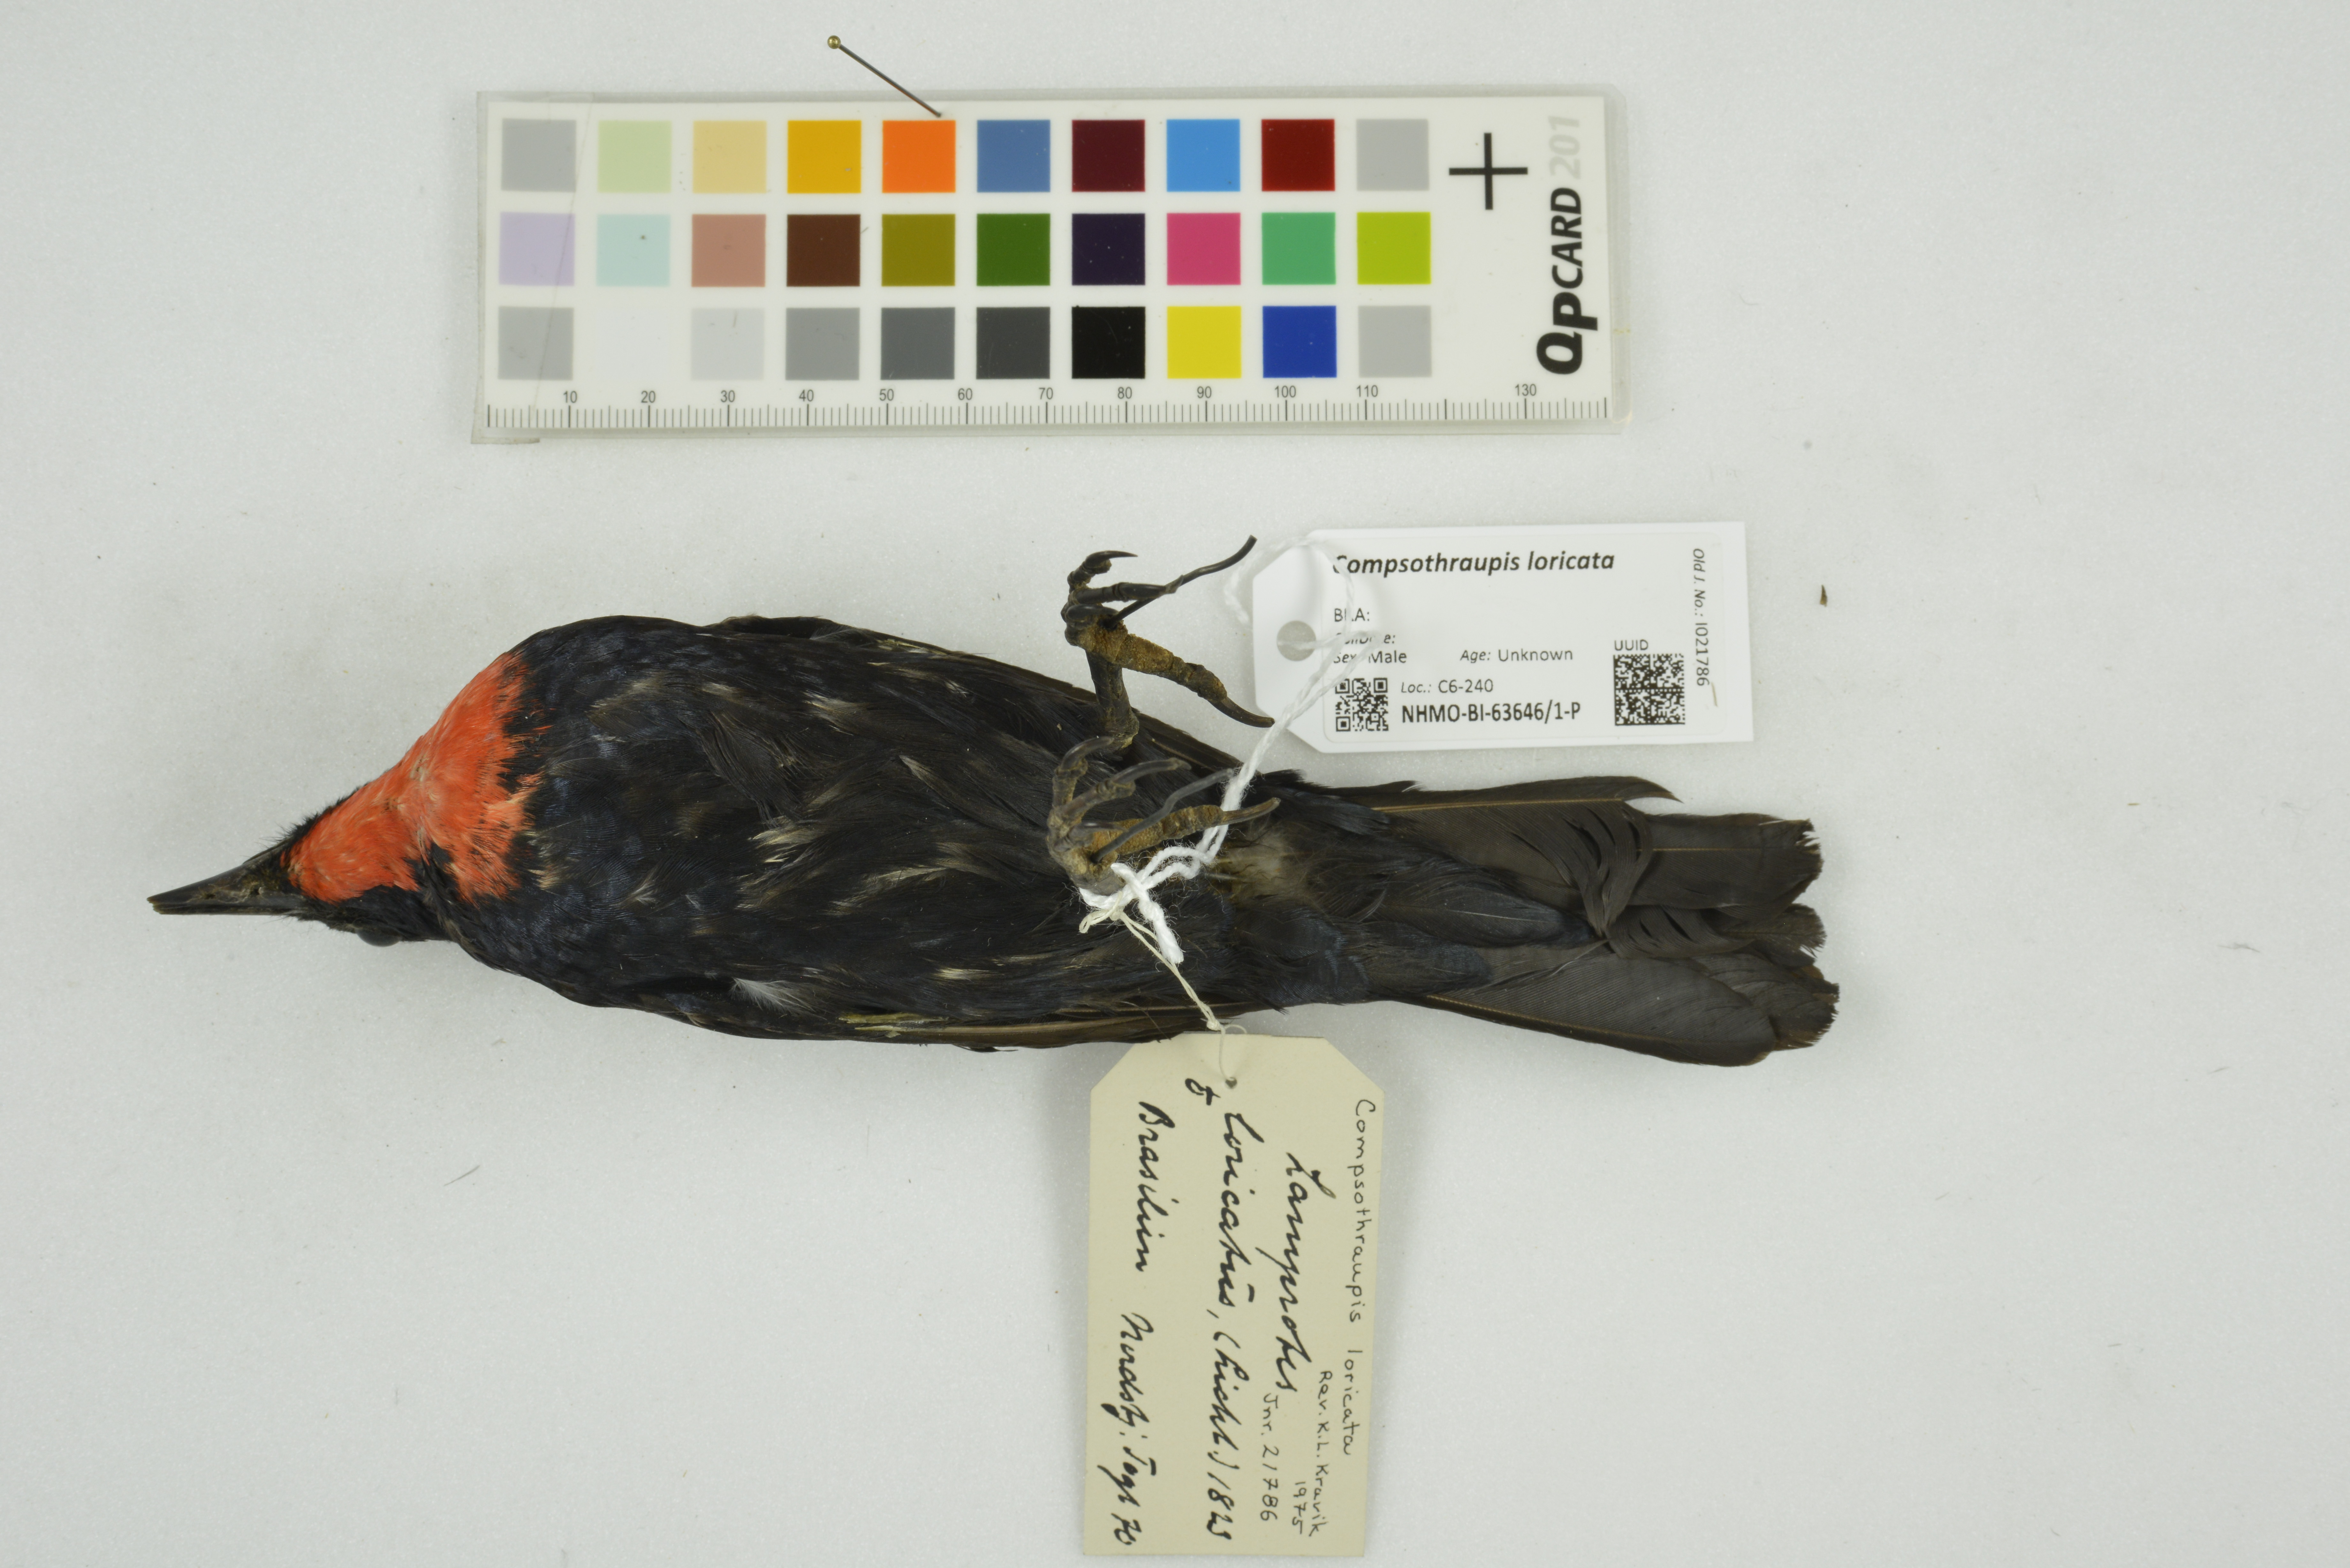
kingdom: Animalia
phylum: Chordata
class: Aves
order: Passeriformes
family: Thraupidae
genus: Compsothraupis
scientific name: Compsothraupis loricata
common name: Scarlet-throated tanager
